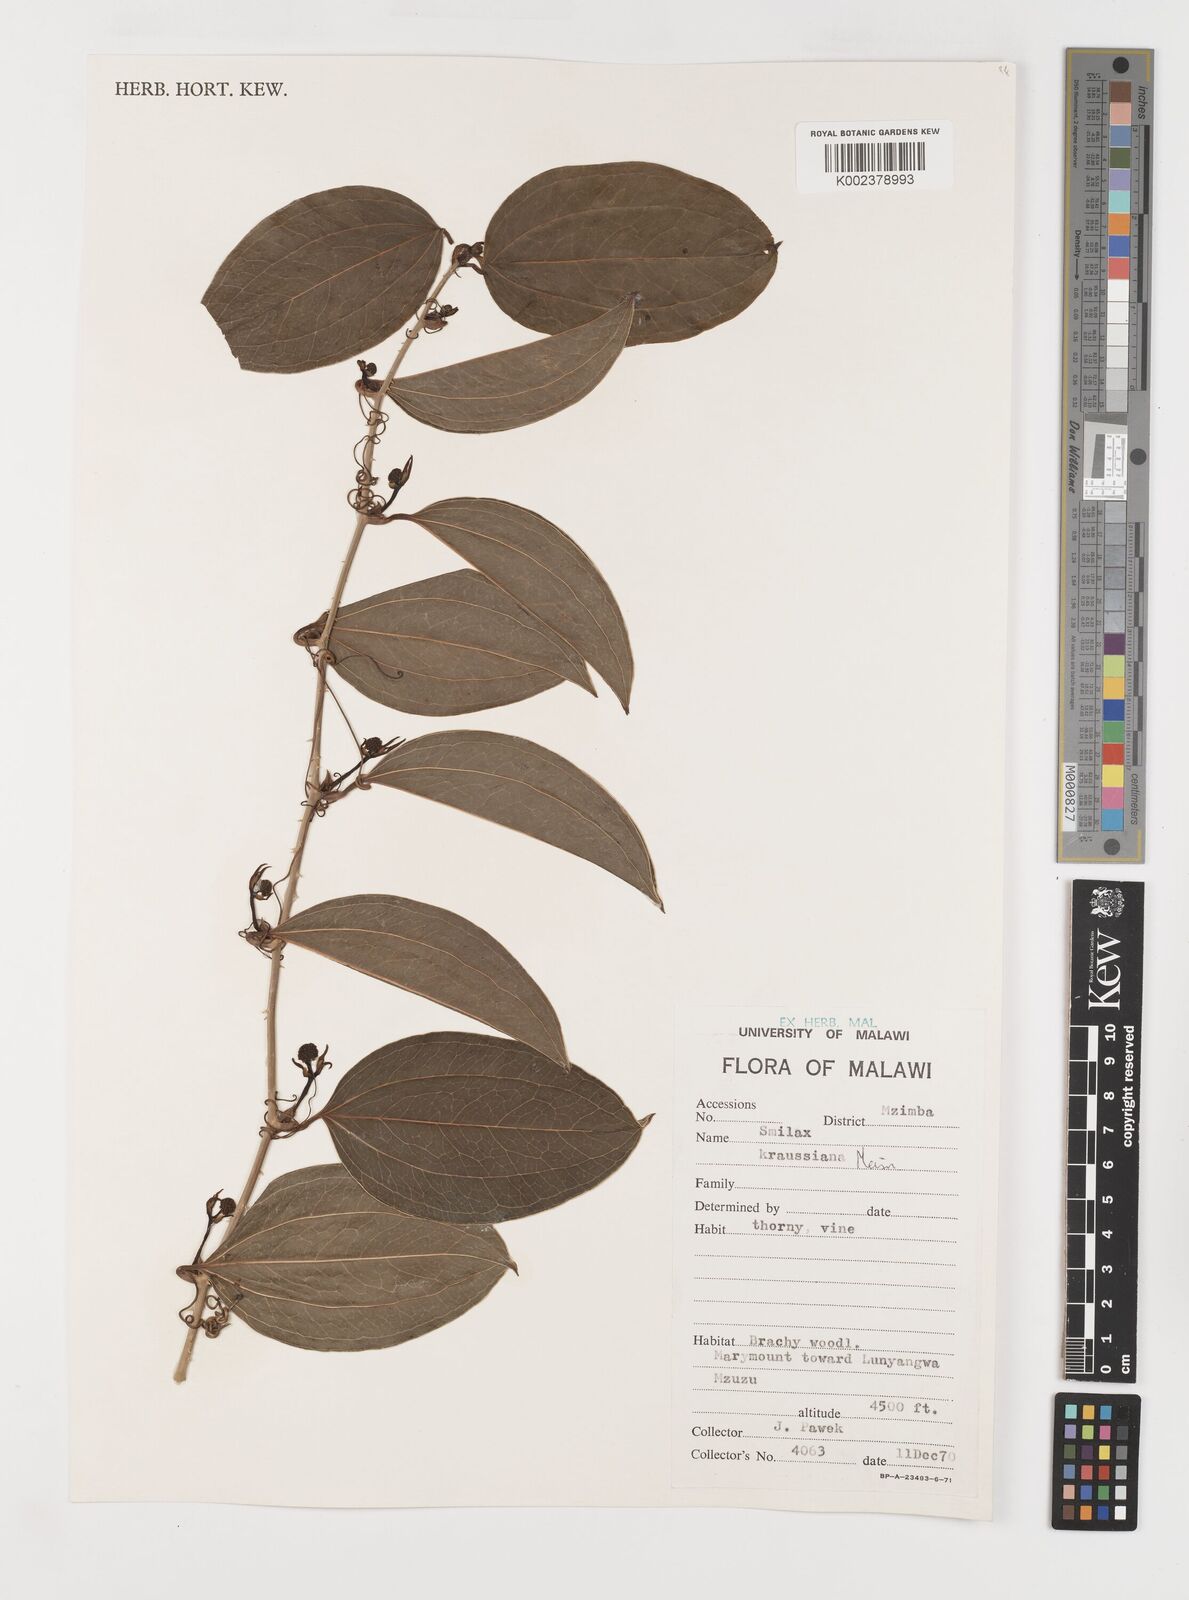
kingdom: Plantae
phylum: Tracheophyta
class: Liliopsida
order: Liliales
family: Smilacaceae
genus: Smilax
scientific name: Smilax anceps
